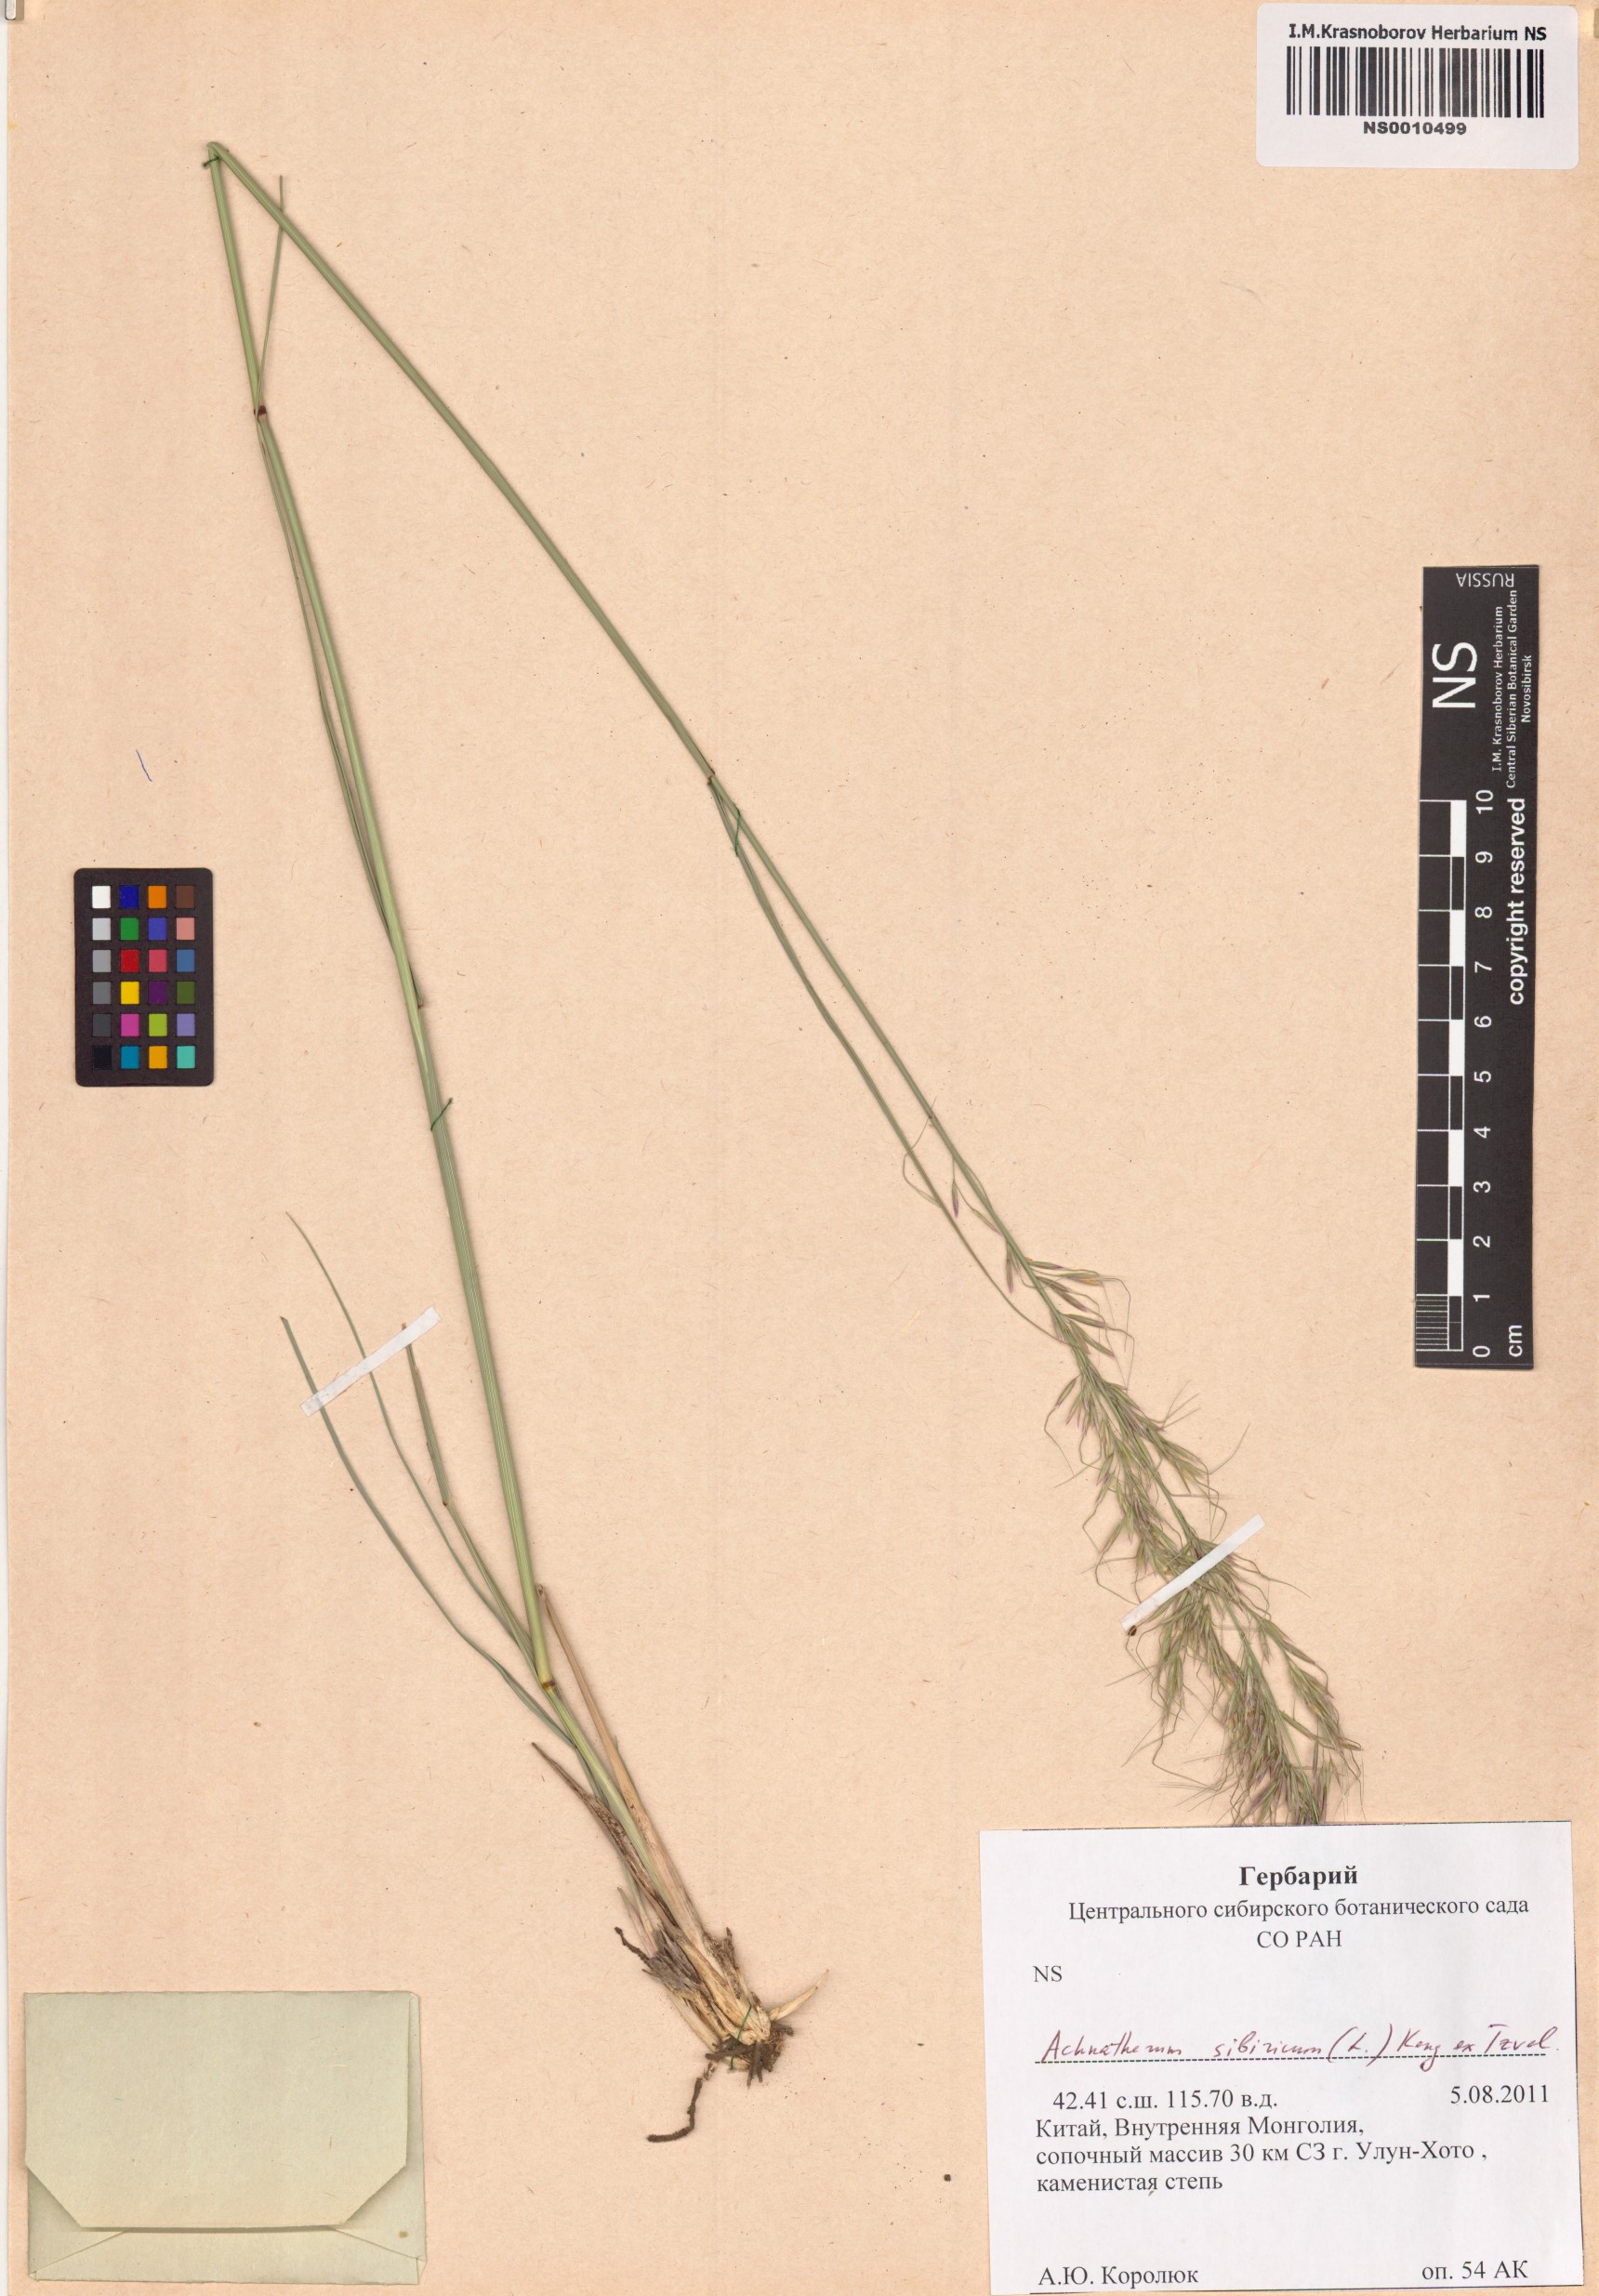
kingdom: Plantae
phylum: Tracheophyta
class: Liliopsida
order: Poales
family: Poaceae
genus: Achnatherum
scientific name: Achnatherum sibiricum
